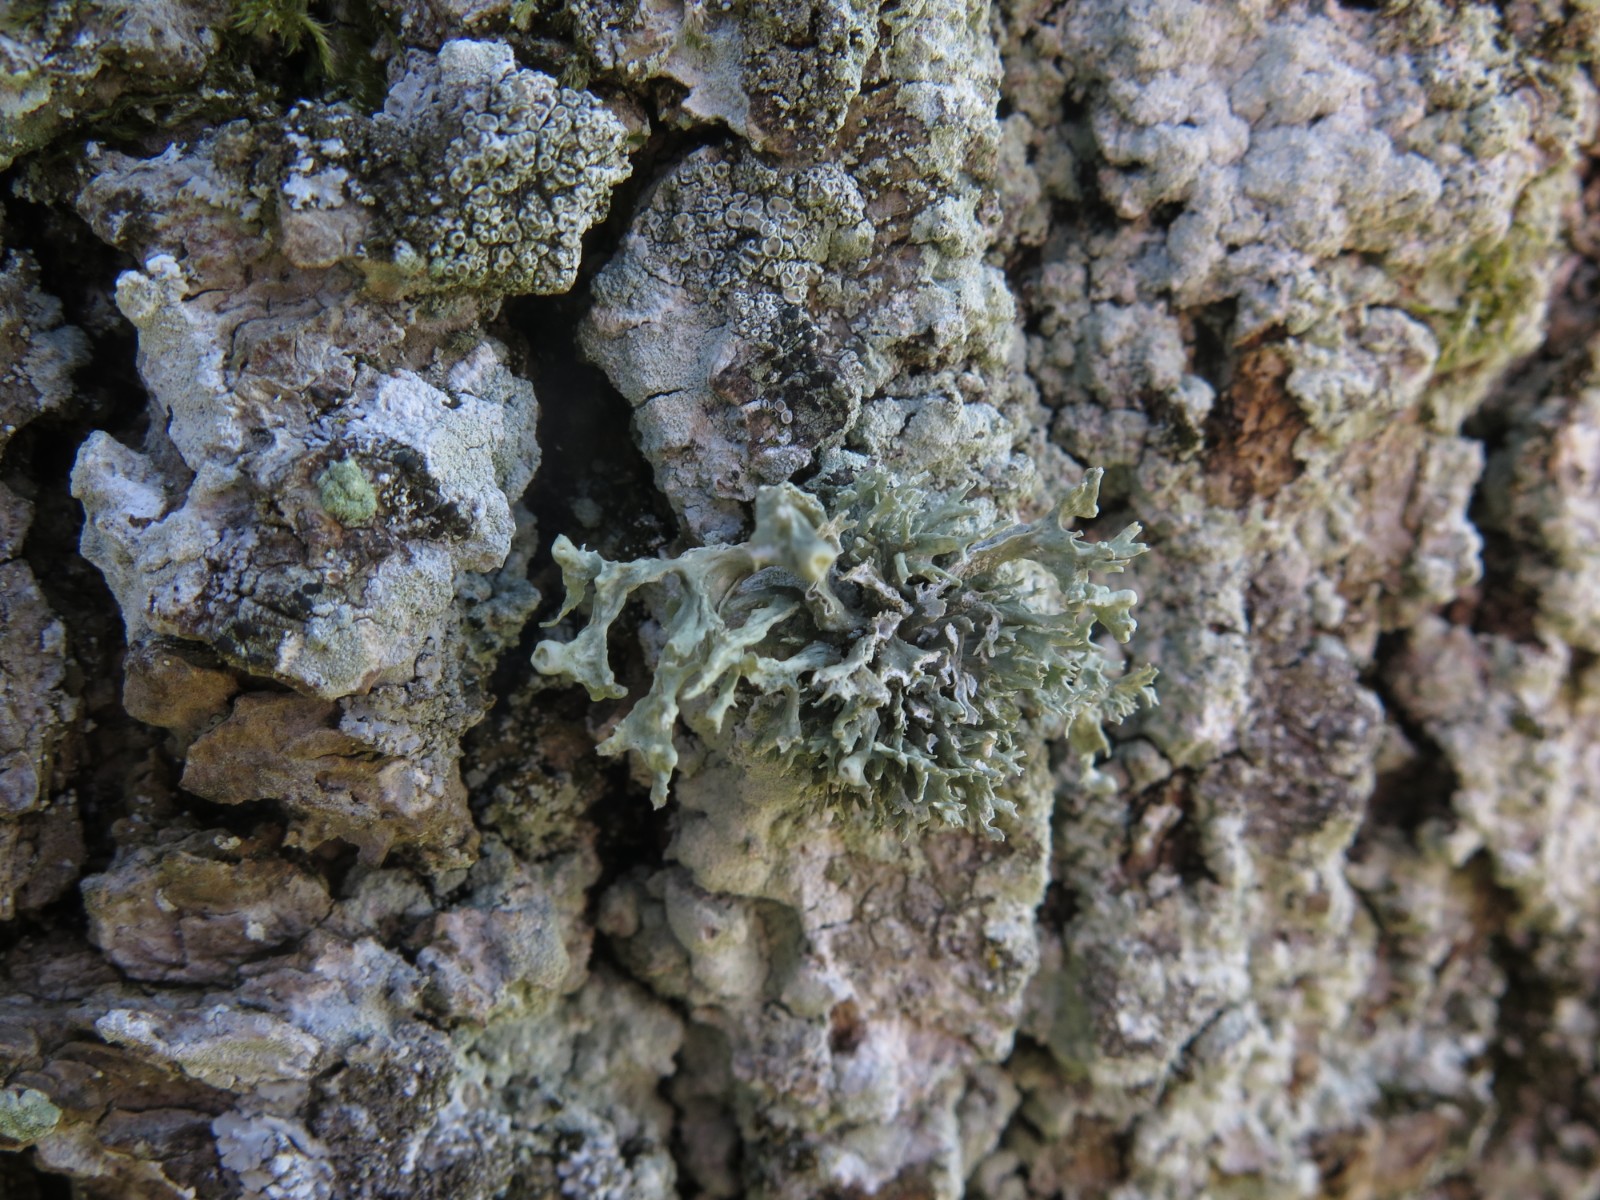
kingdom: Fungi
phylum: Ascomycota
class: Lecanoromycetes
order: Lecanorales
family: Ramalinaceae
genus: Ramalina
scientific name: Ramalina fastigiata
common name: tue-grenlav
